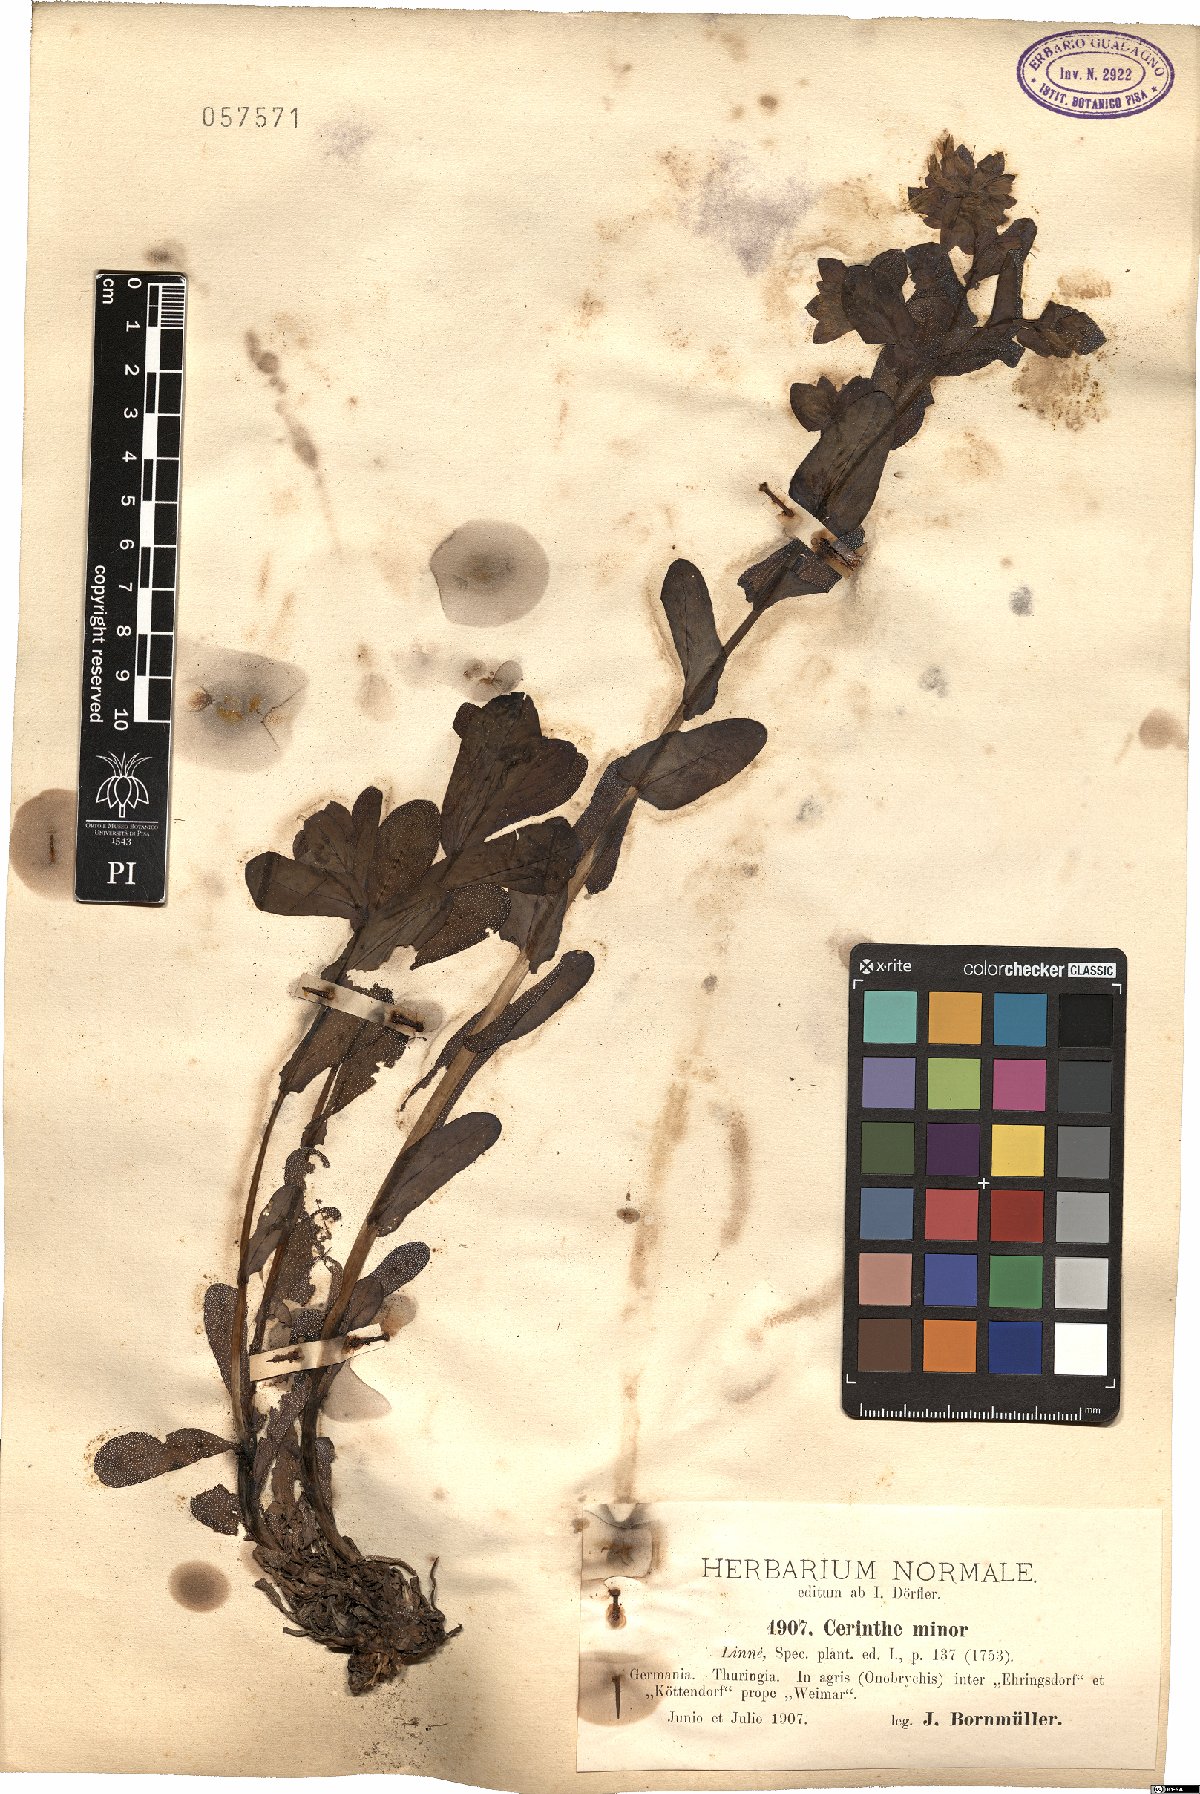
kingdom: Plantae
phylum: Tracheophyta
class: Magnoliopsida
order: Boraginales
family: Boraginaceae
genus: Cerinthe
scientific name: Cerinthe minor
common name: Lesser honeywort
